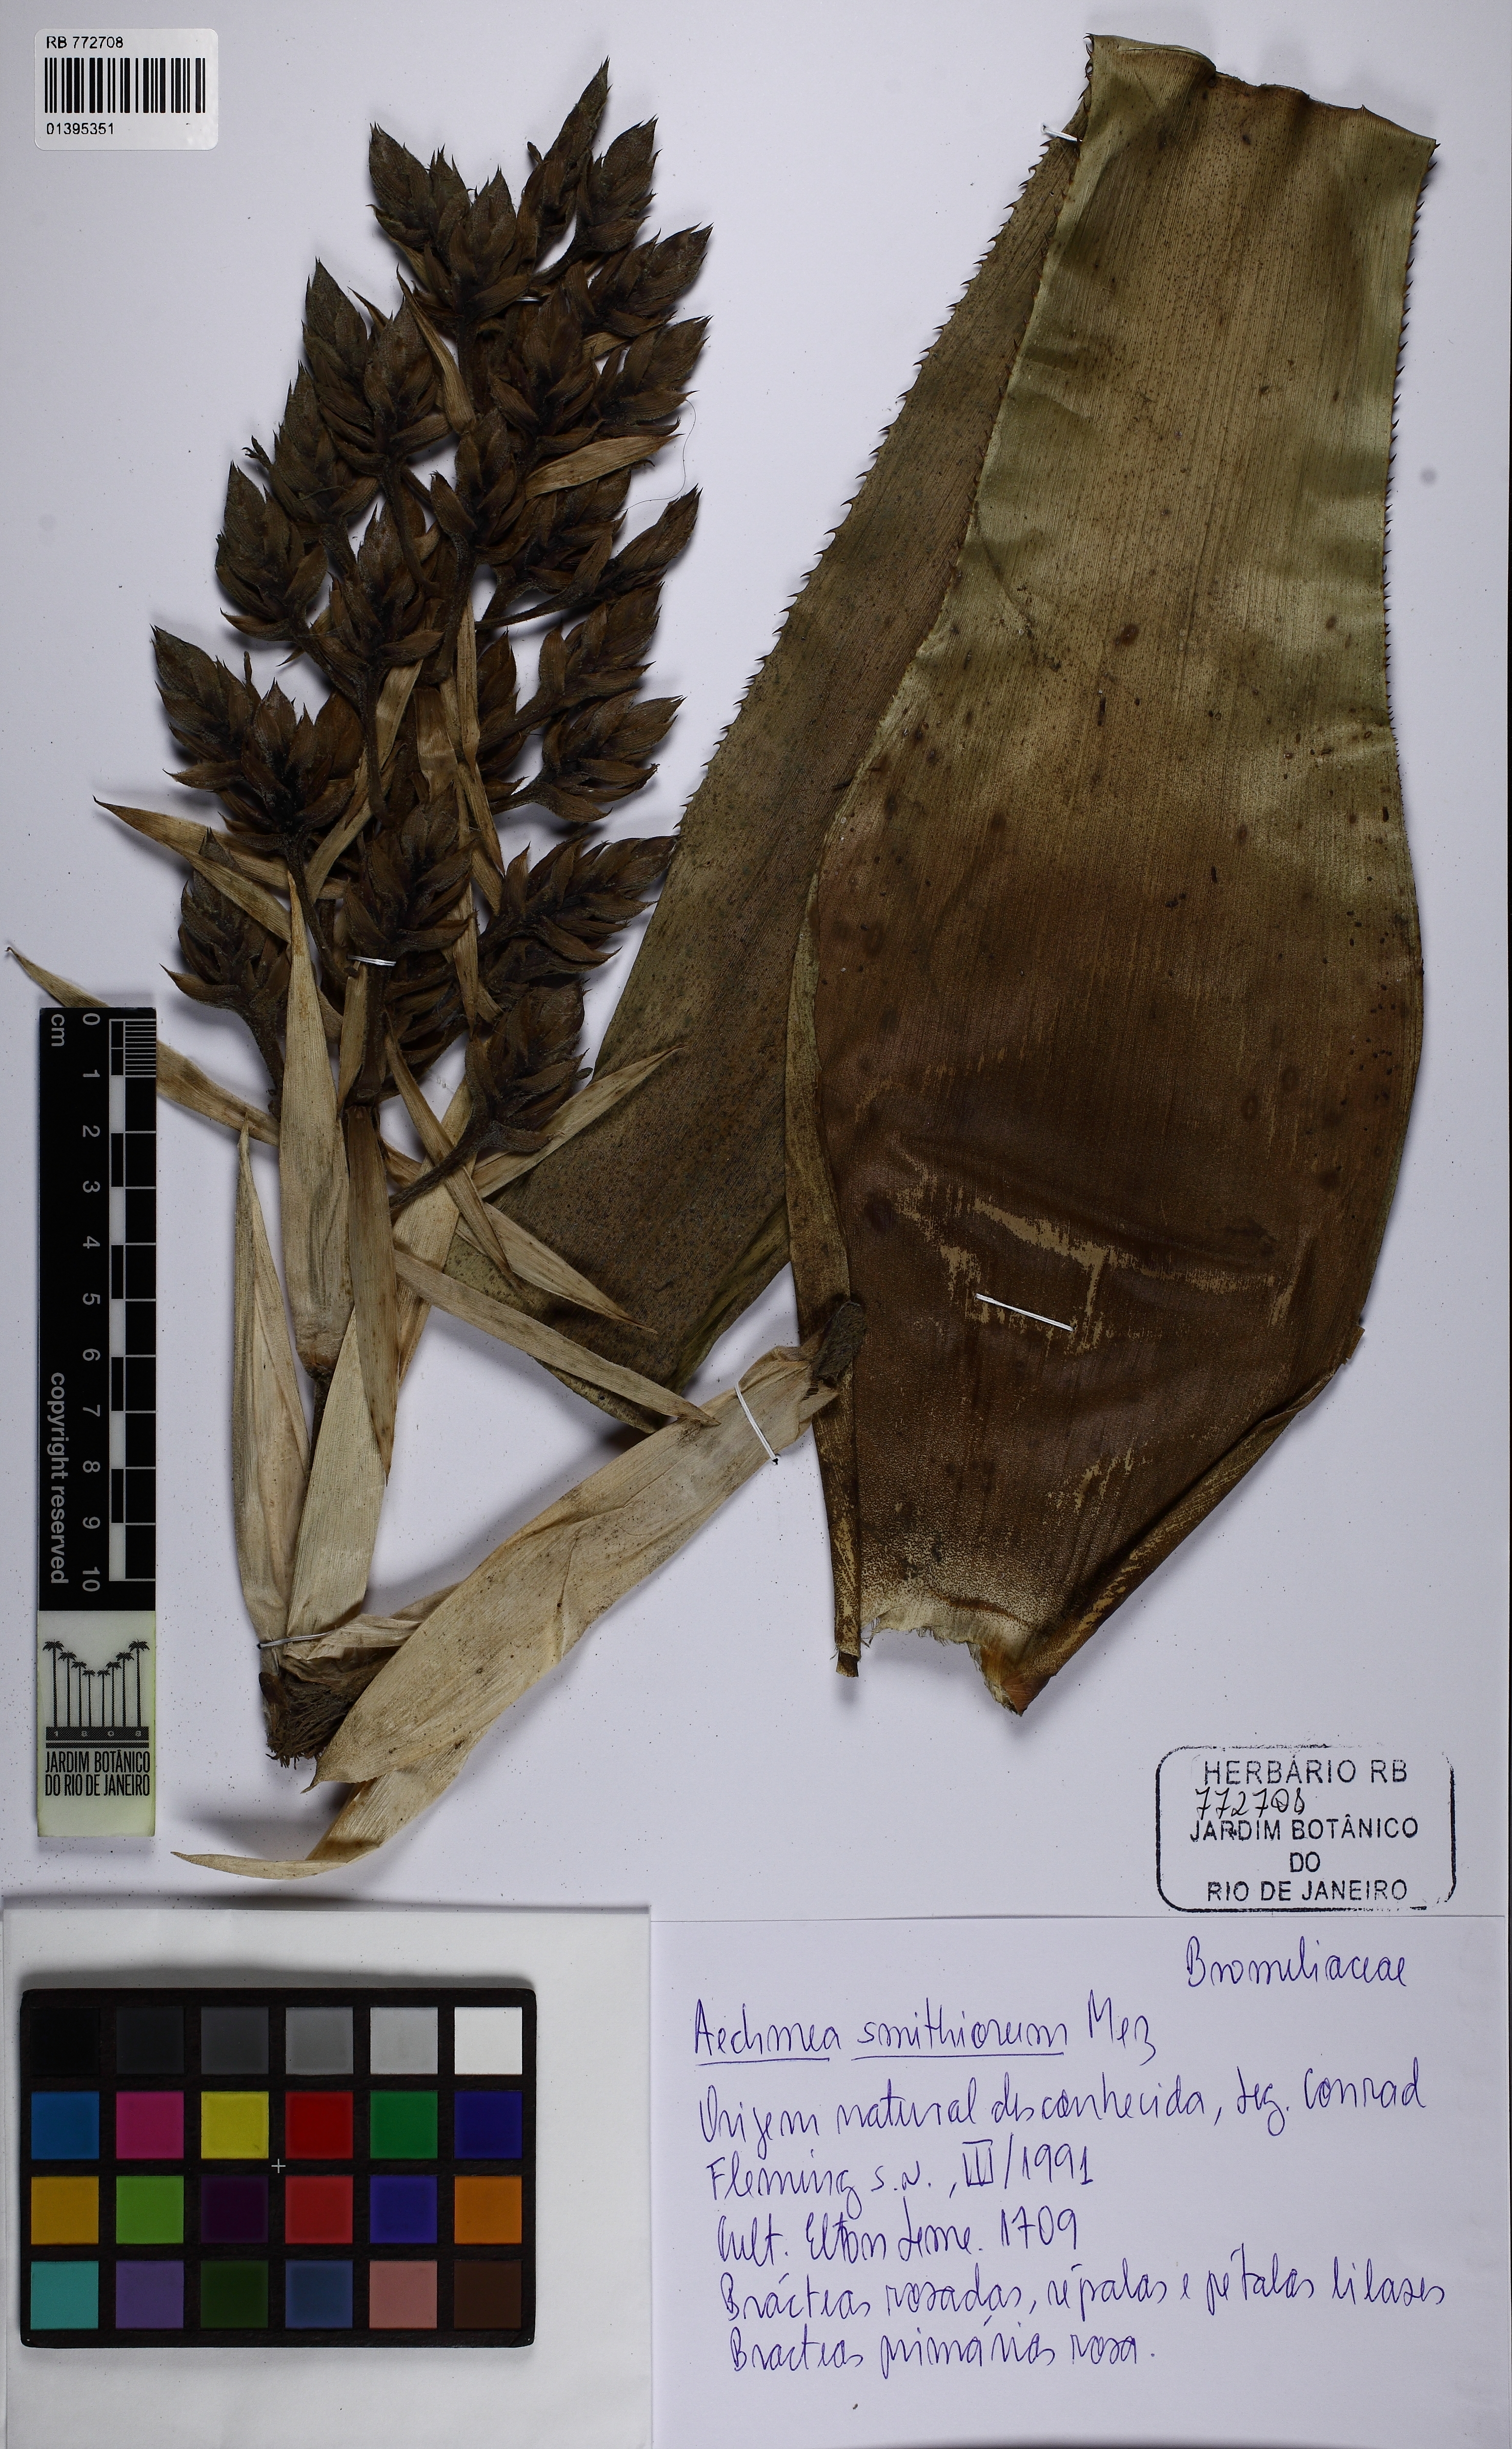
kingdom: Plantae
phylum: Tracheophyta
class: Liliopsida
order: Poales
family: Bromeliaceae
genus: Aechmea
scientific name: Aechmea smithiorum
